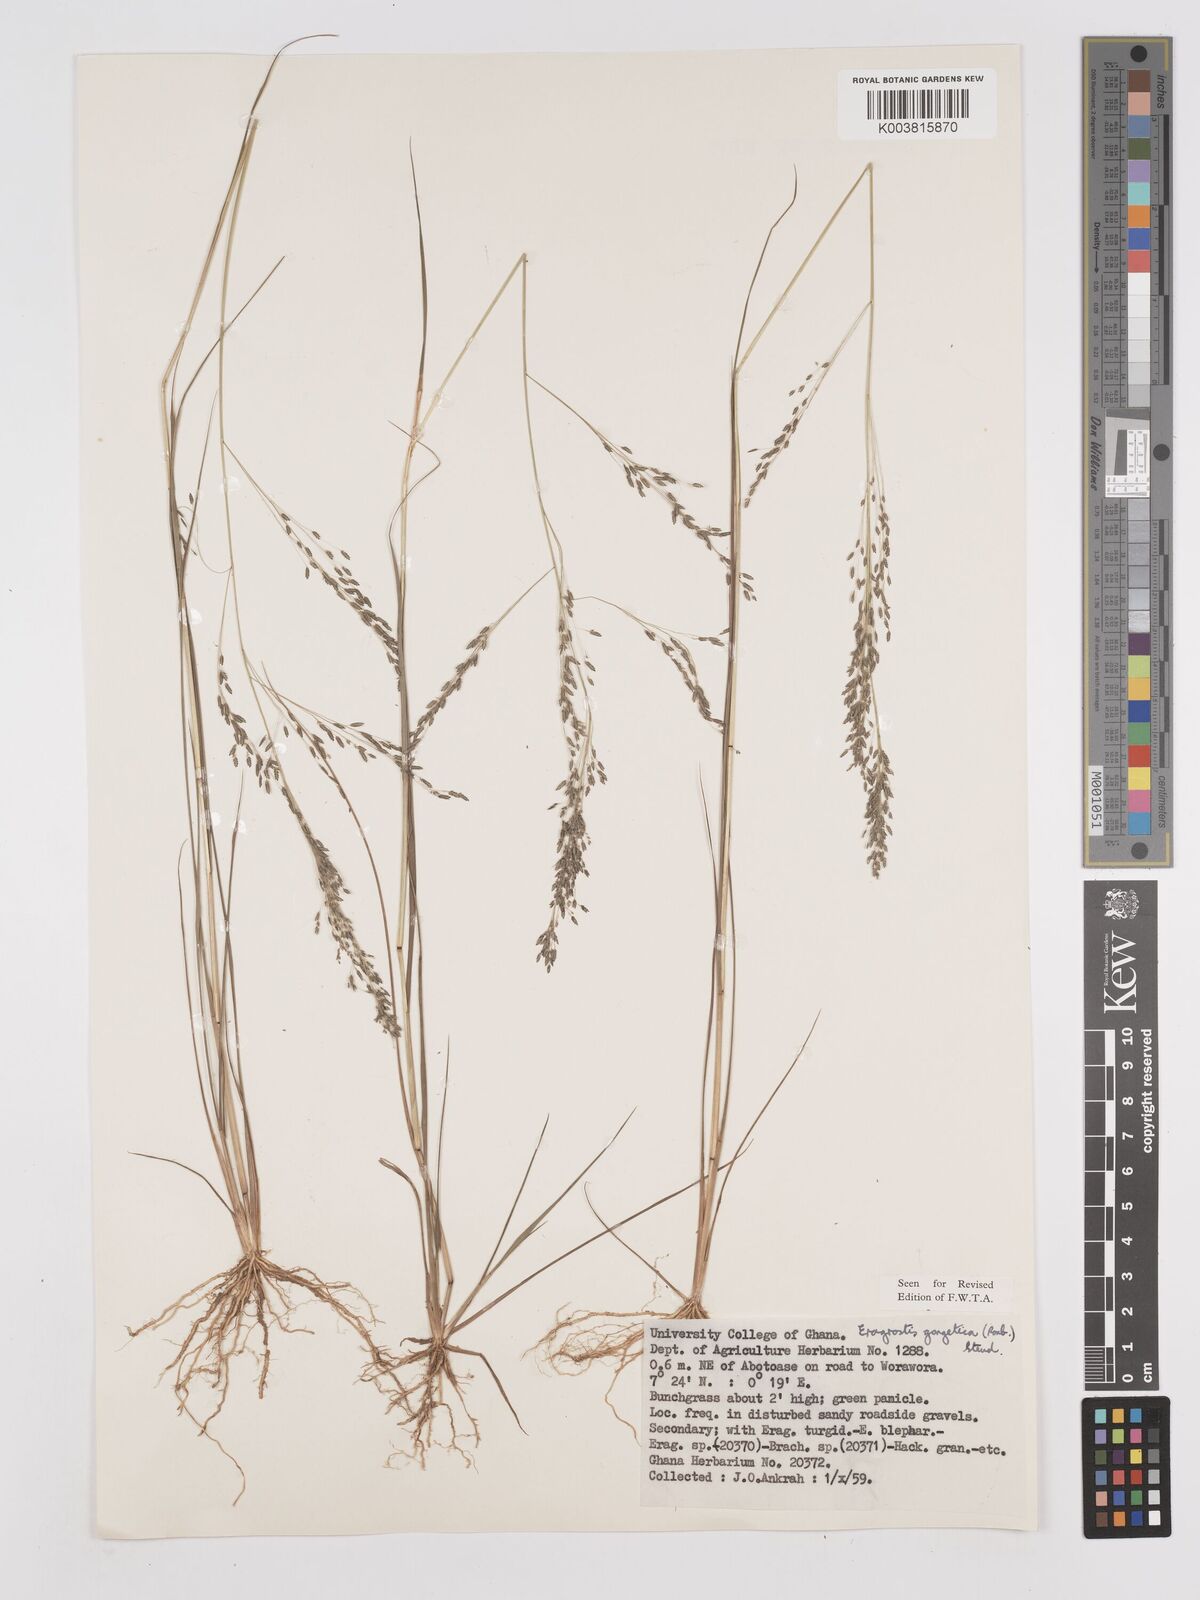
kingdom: Plantae
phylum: Tracheophyta
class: Liliopsida
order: Poales
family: Poaceae
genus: Eragrostis
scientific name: Eragrostis gangetica
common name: Slimflower lovegrass
